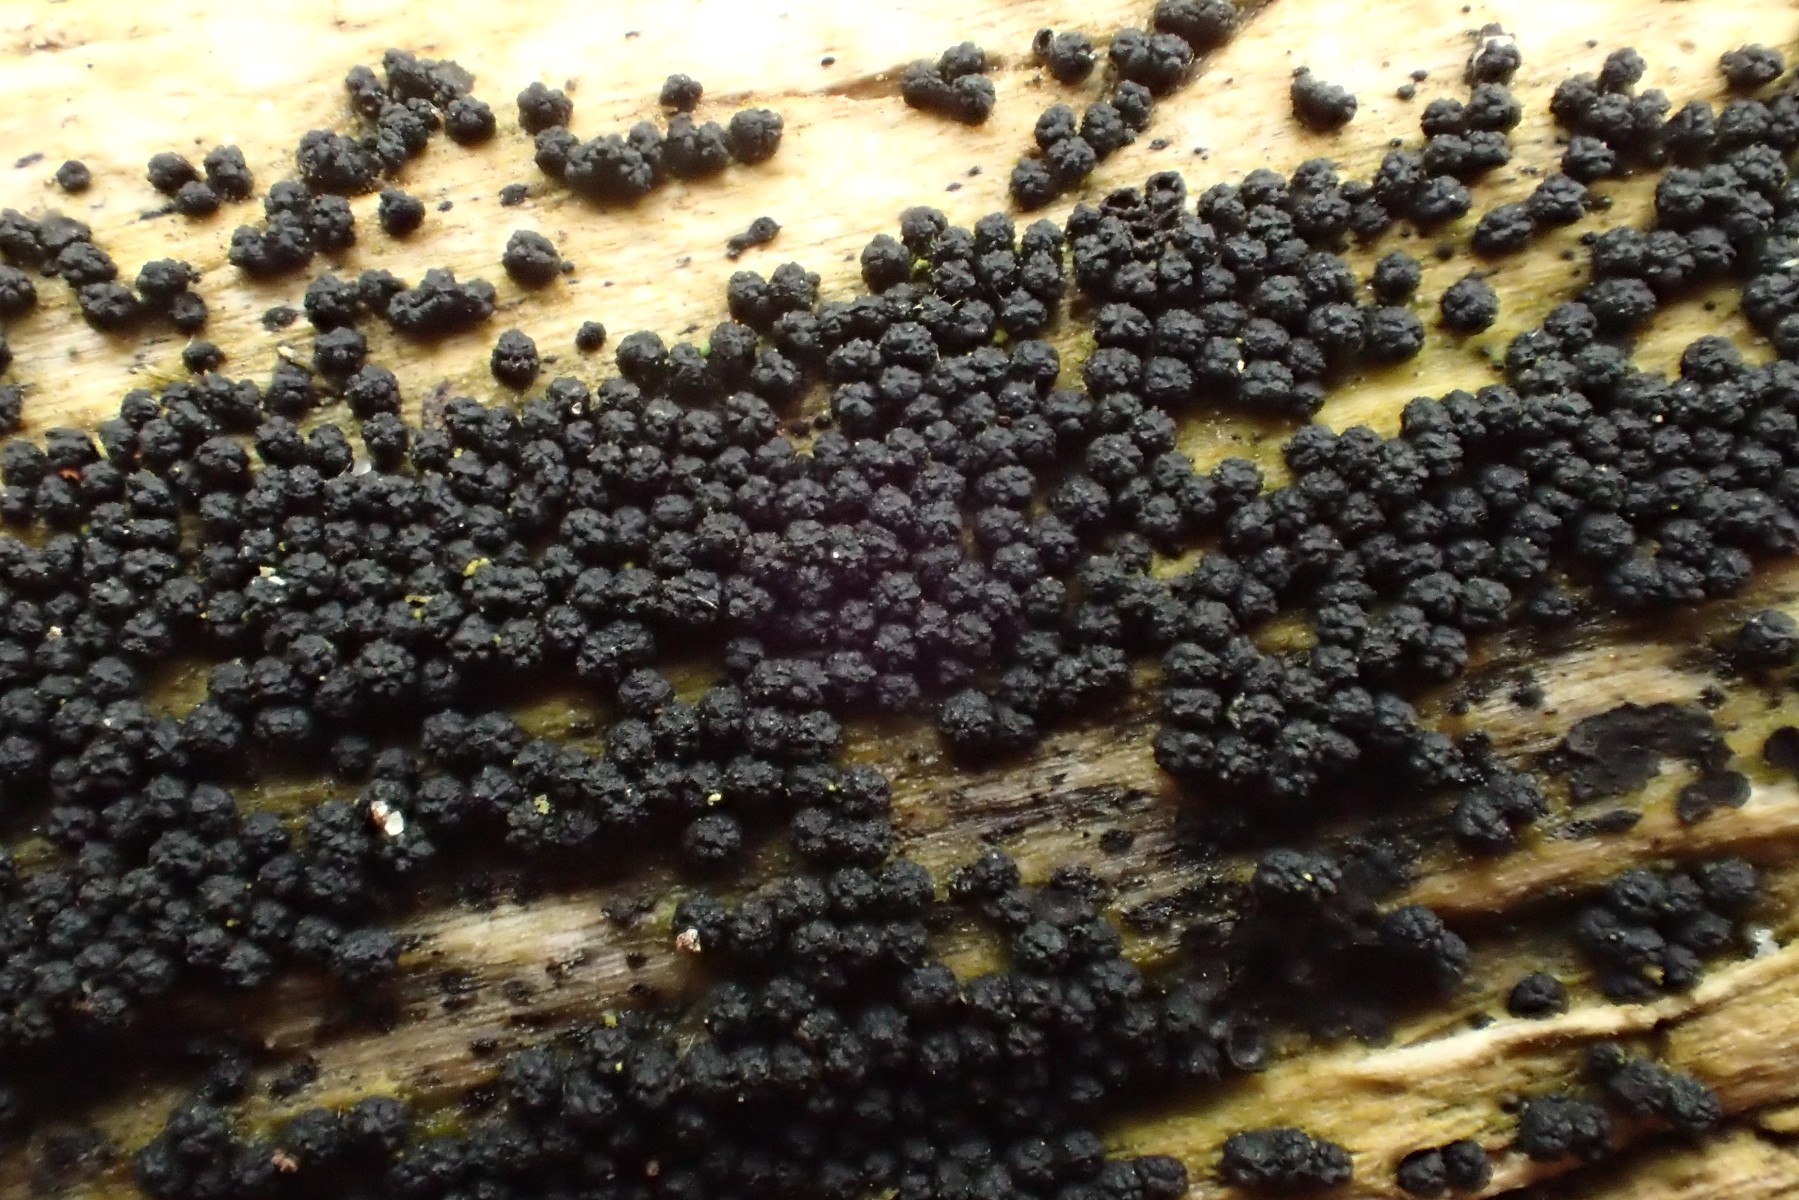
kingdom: Fungi
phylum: Ascomycota
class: Sordariomycetes
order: Coronophorales
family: Bertiaceae
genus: Bertia
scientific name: Bertia moriformis
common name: almindelig morbærkerne
